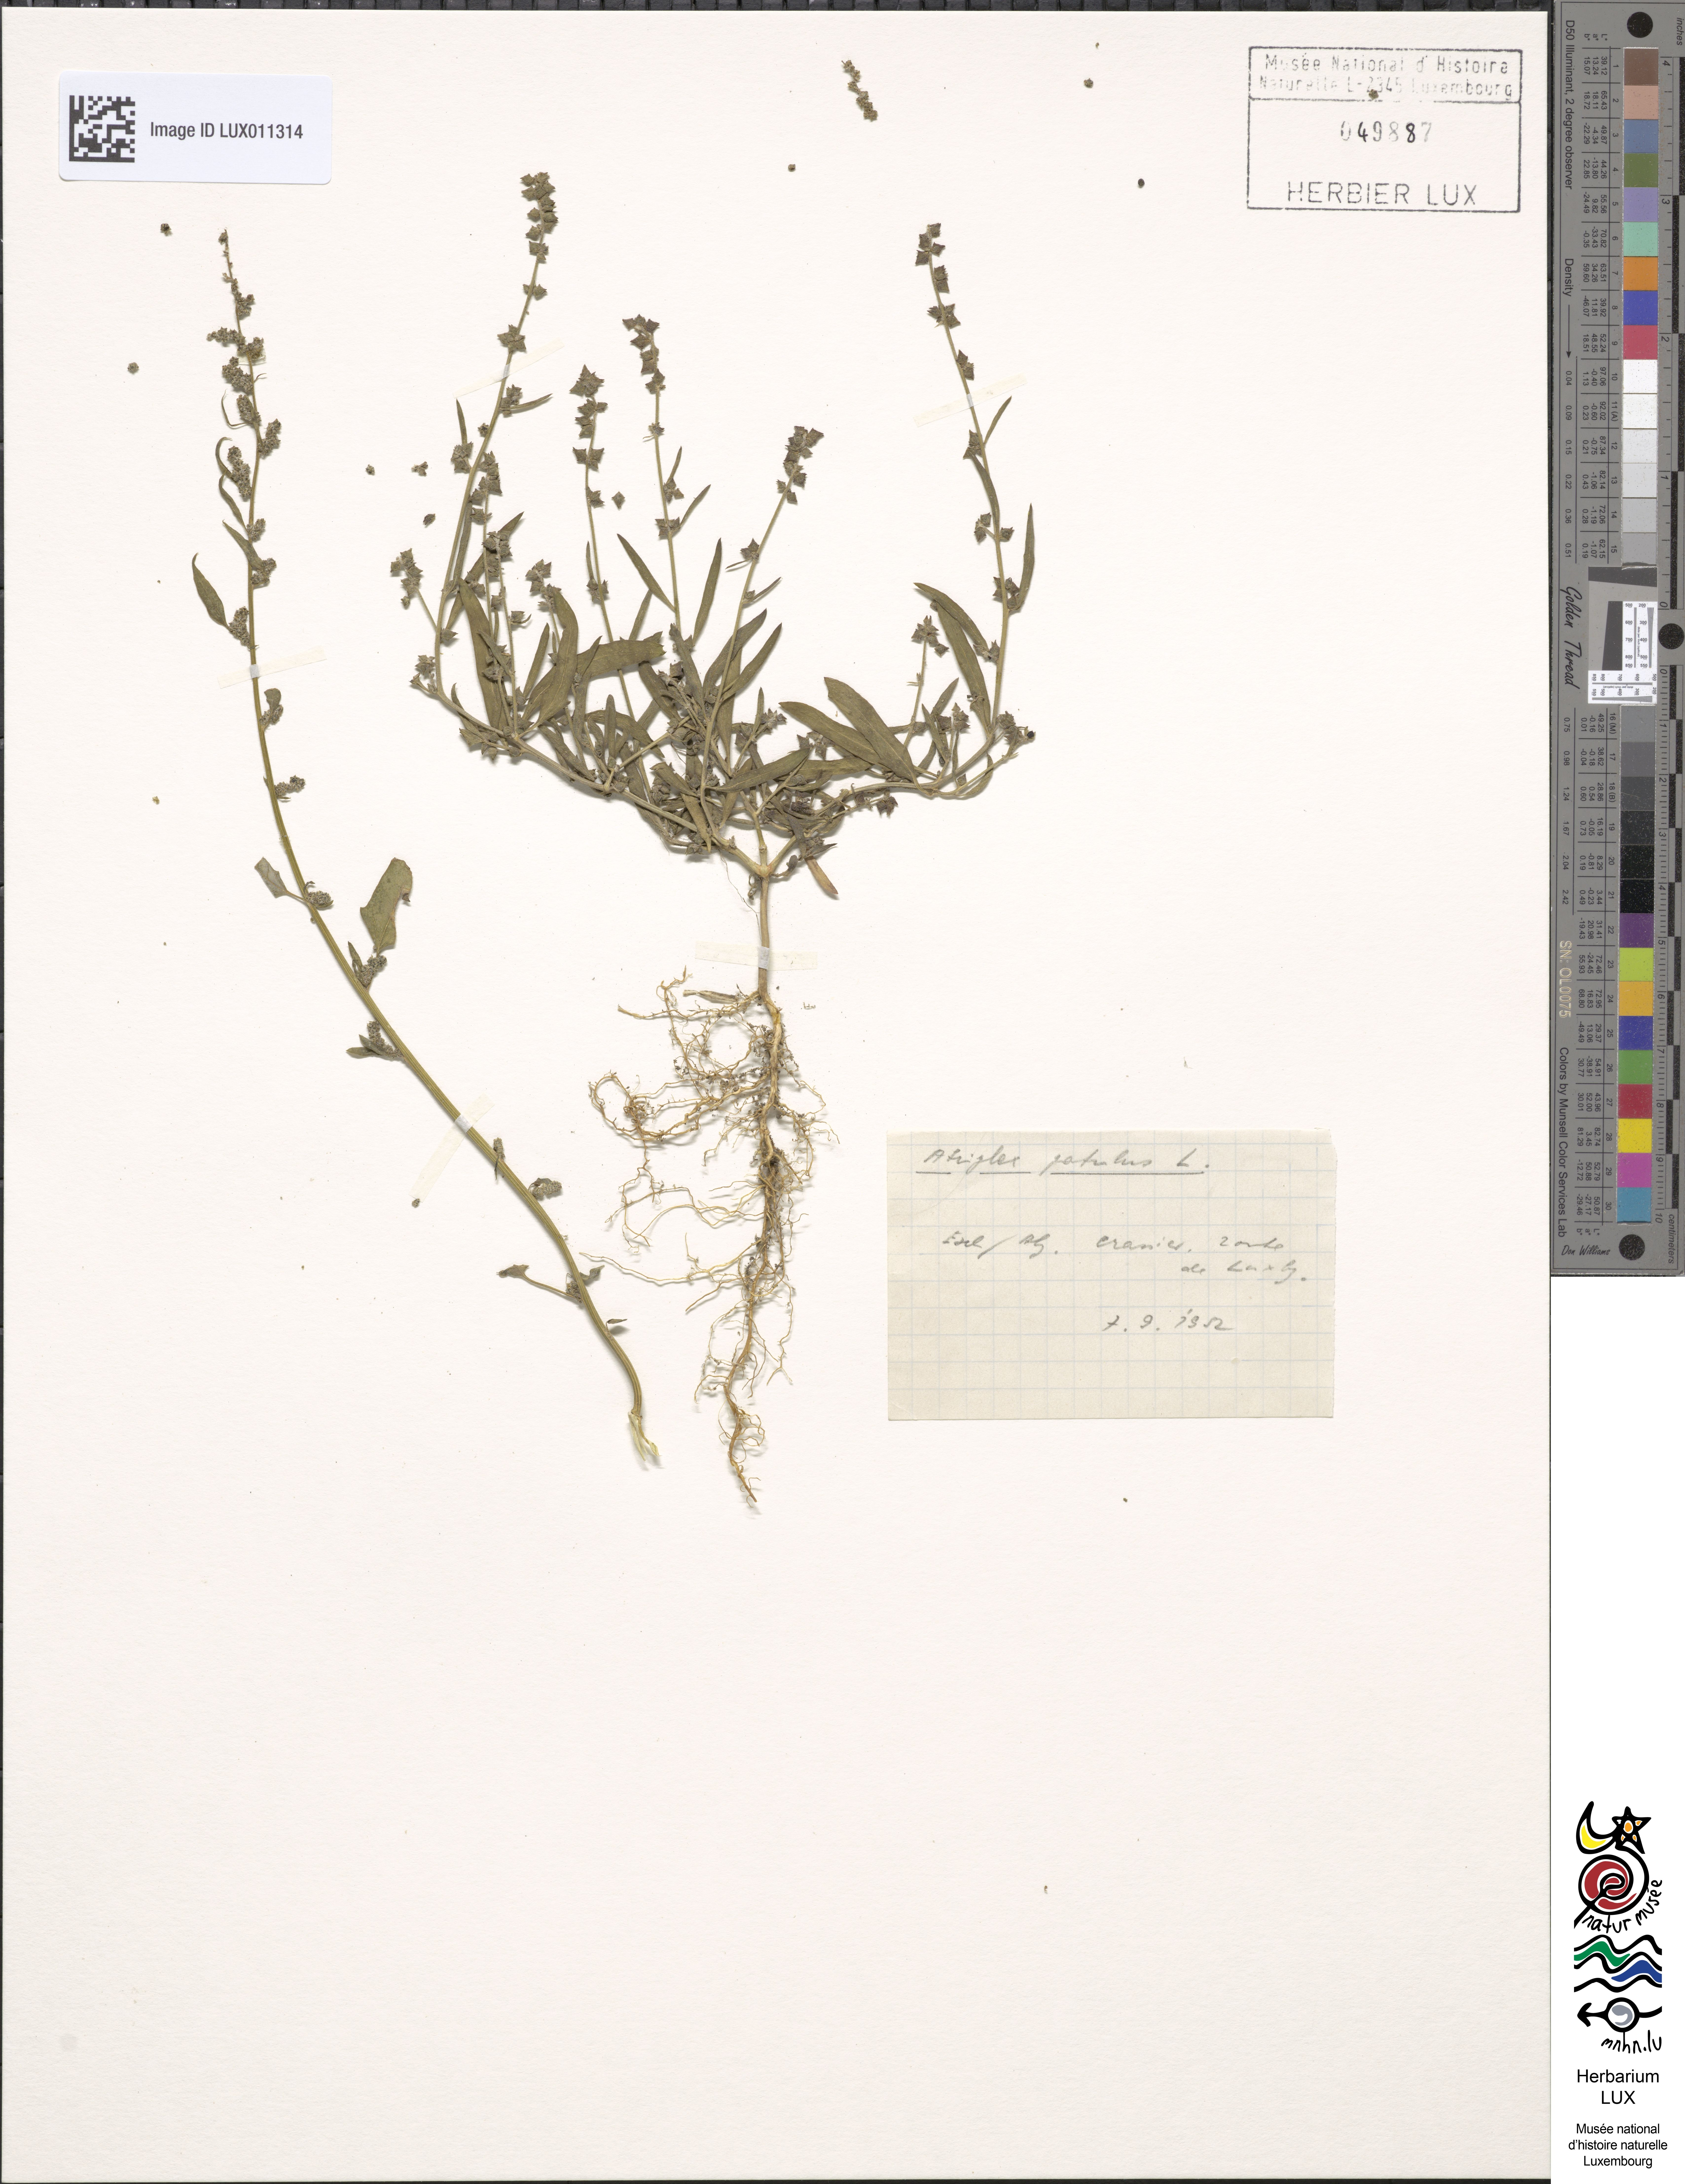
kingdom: Plantae
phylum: Tracheophyta
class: Magnoliopsida
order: Caryophyllales
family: Amaranthaceae
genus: Atriplex
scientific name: Atriplex patula
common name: Common orache
